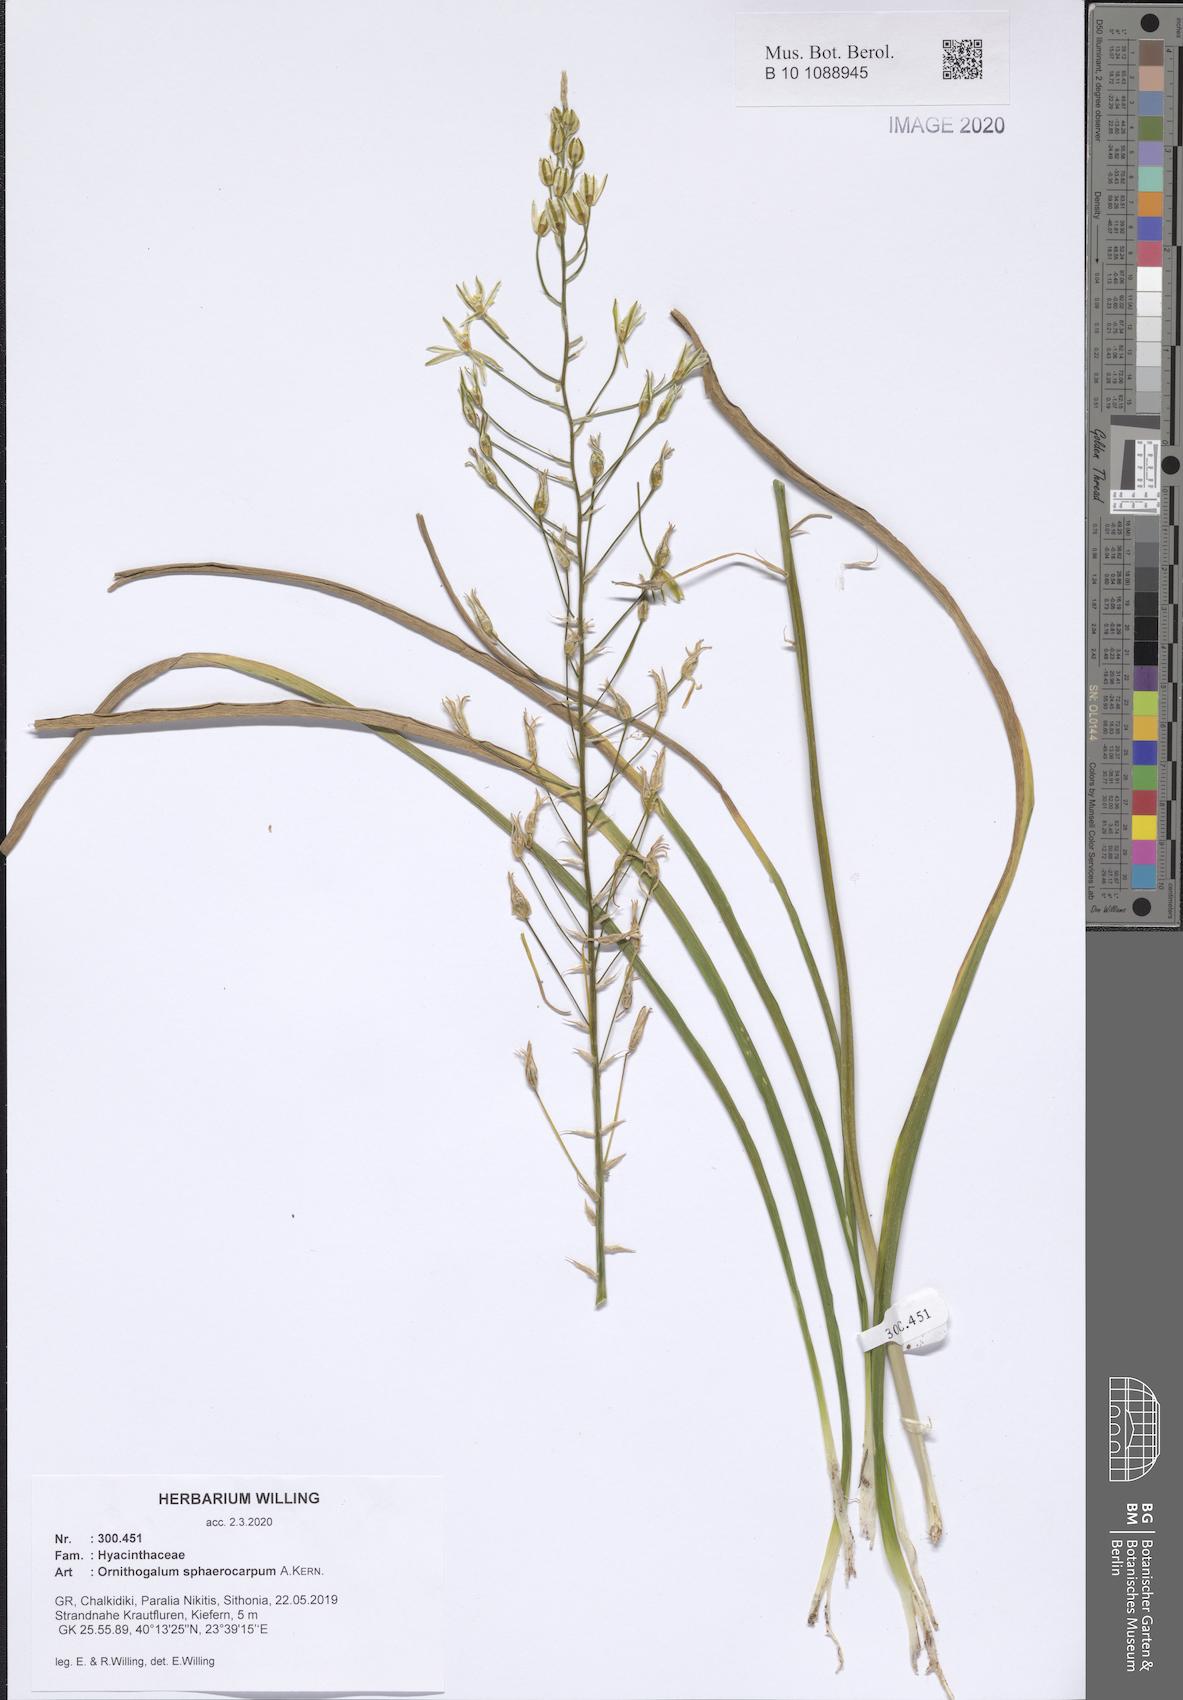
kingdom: Plantae
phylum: Tracheophyta
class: Liliopsida
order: Asparagales
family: Asparagaceae
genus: Ornithogalum
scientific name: Ornithogalum sphaerocarpum
